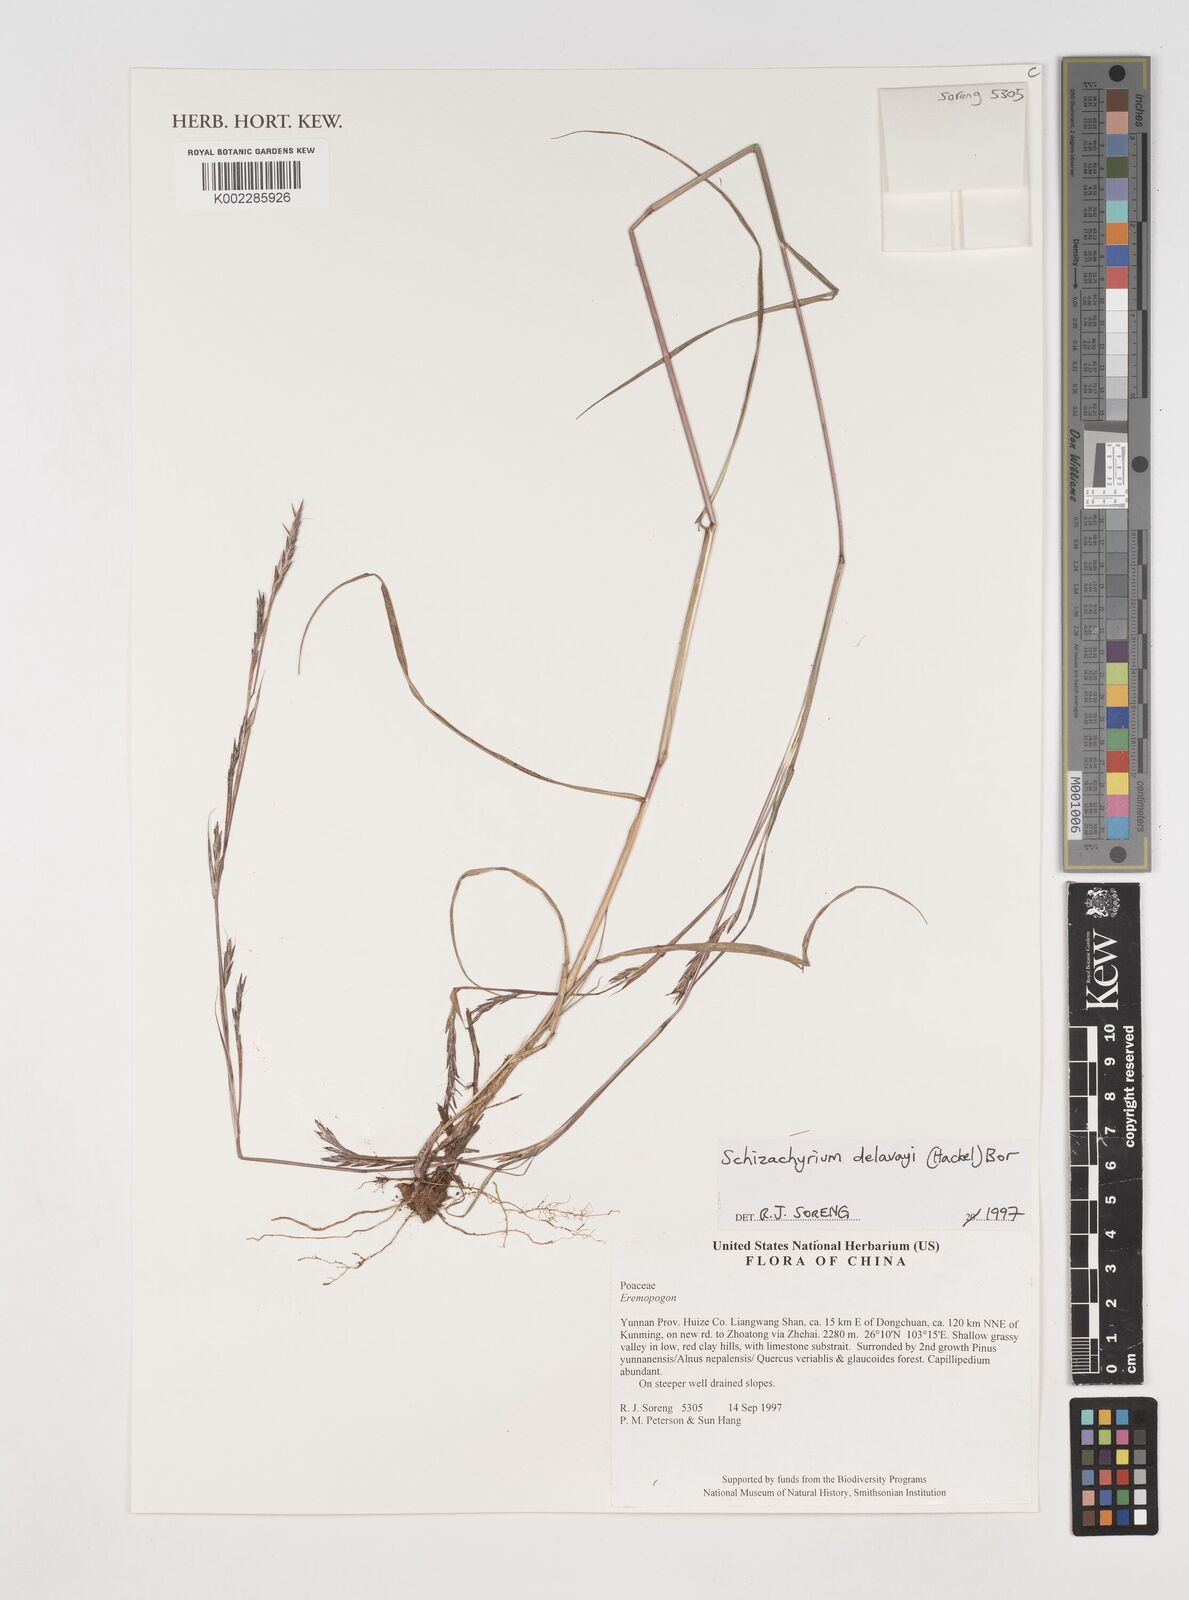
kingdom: Plantae
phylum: Tracheophyta
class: Liliopsida
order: Poales
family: Poaceae
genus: Schizachyrium
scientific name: Schizachyrium delavayi
